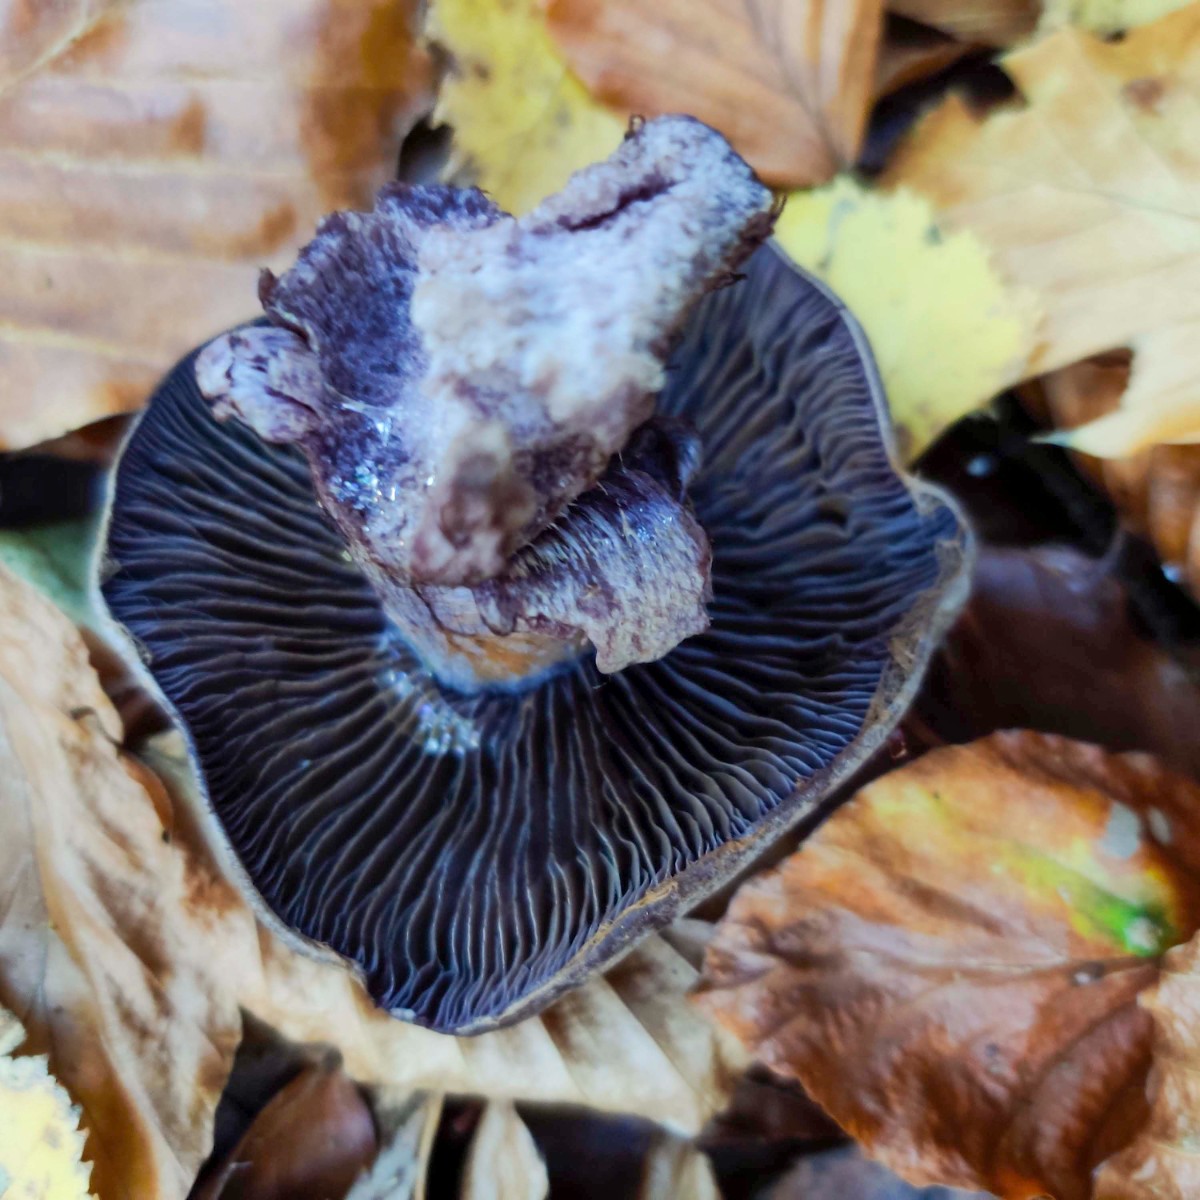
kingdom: Fungi
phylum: Basidiomycota
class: Agaricomycetes
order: Agaricales
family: Cortinariaceae
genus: Cortinarius
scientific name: Cortinarius violaceus
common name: mørkviolet slørhat
